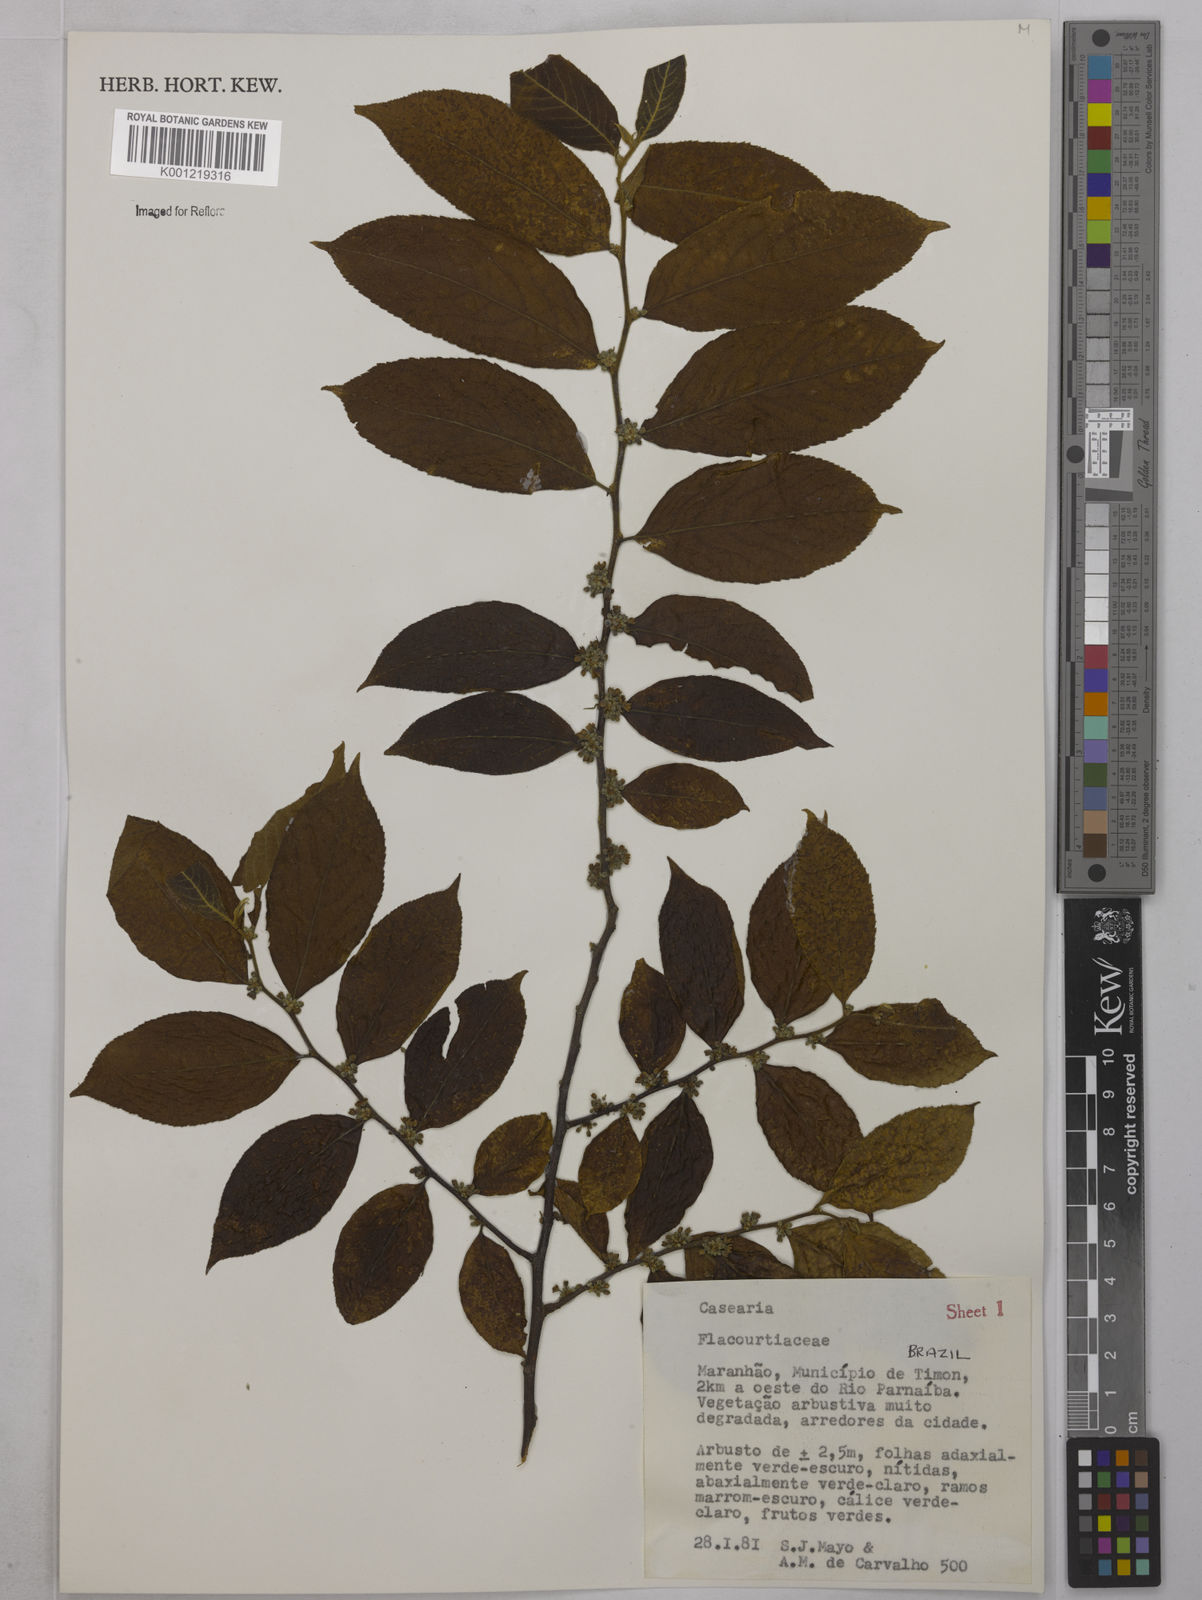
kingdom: Plantae
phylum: Tracheophyta
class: Magnoliopsida
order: Malpighiales
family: Salicaceae
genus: Casearia
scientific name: Casearia
